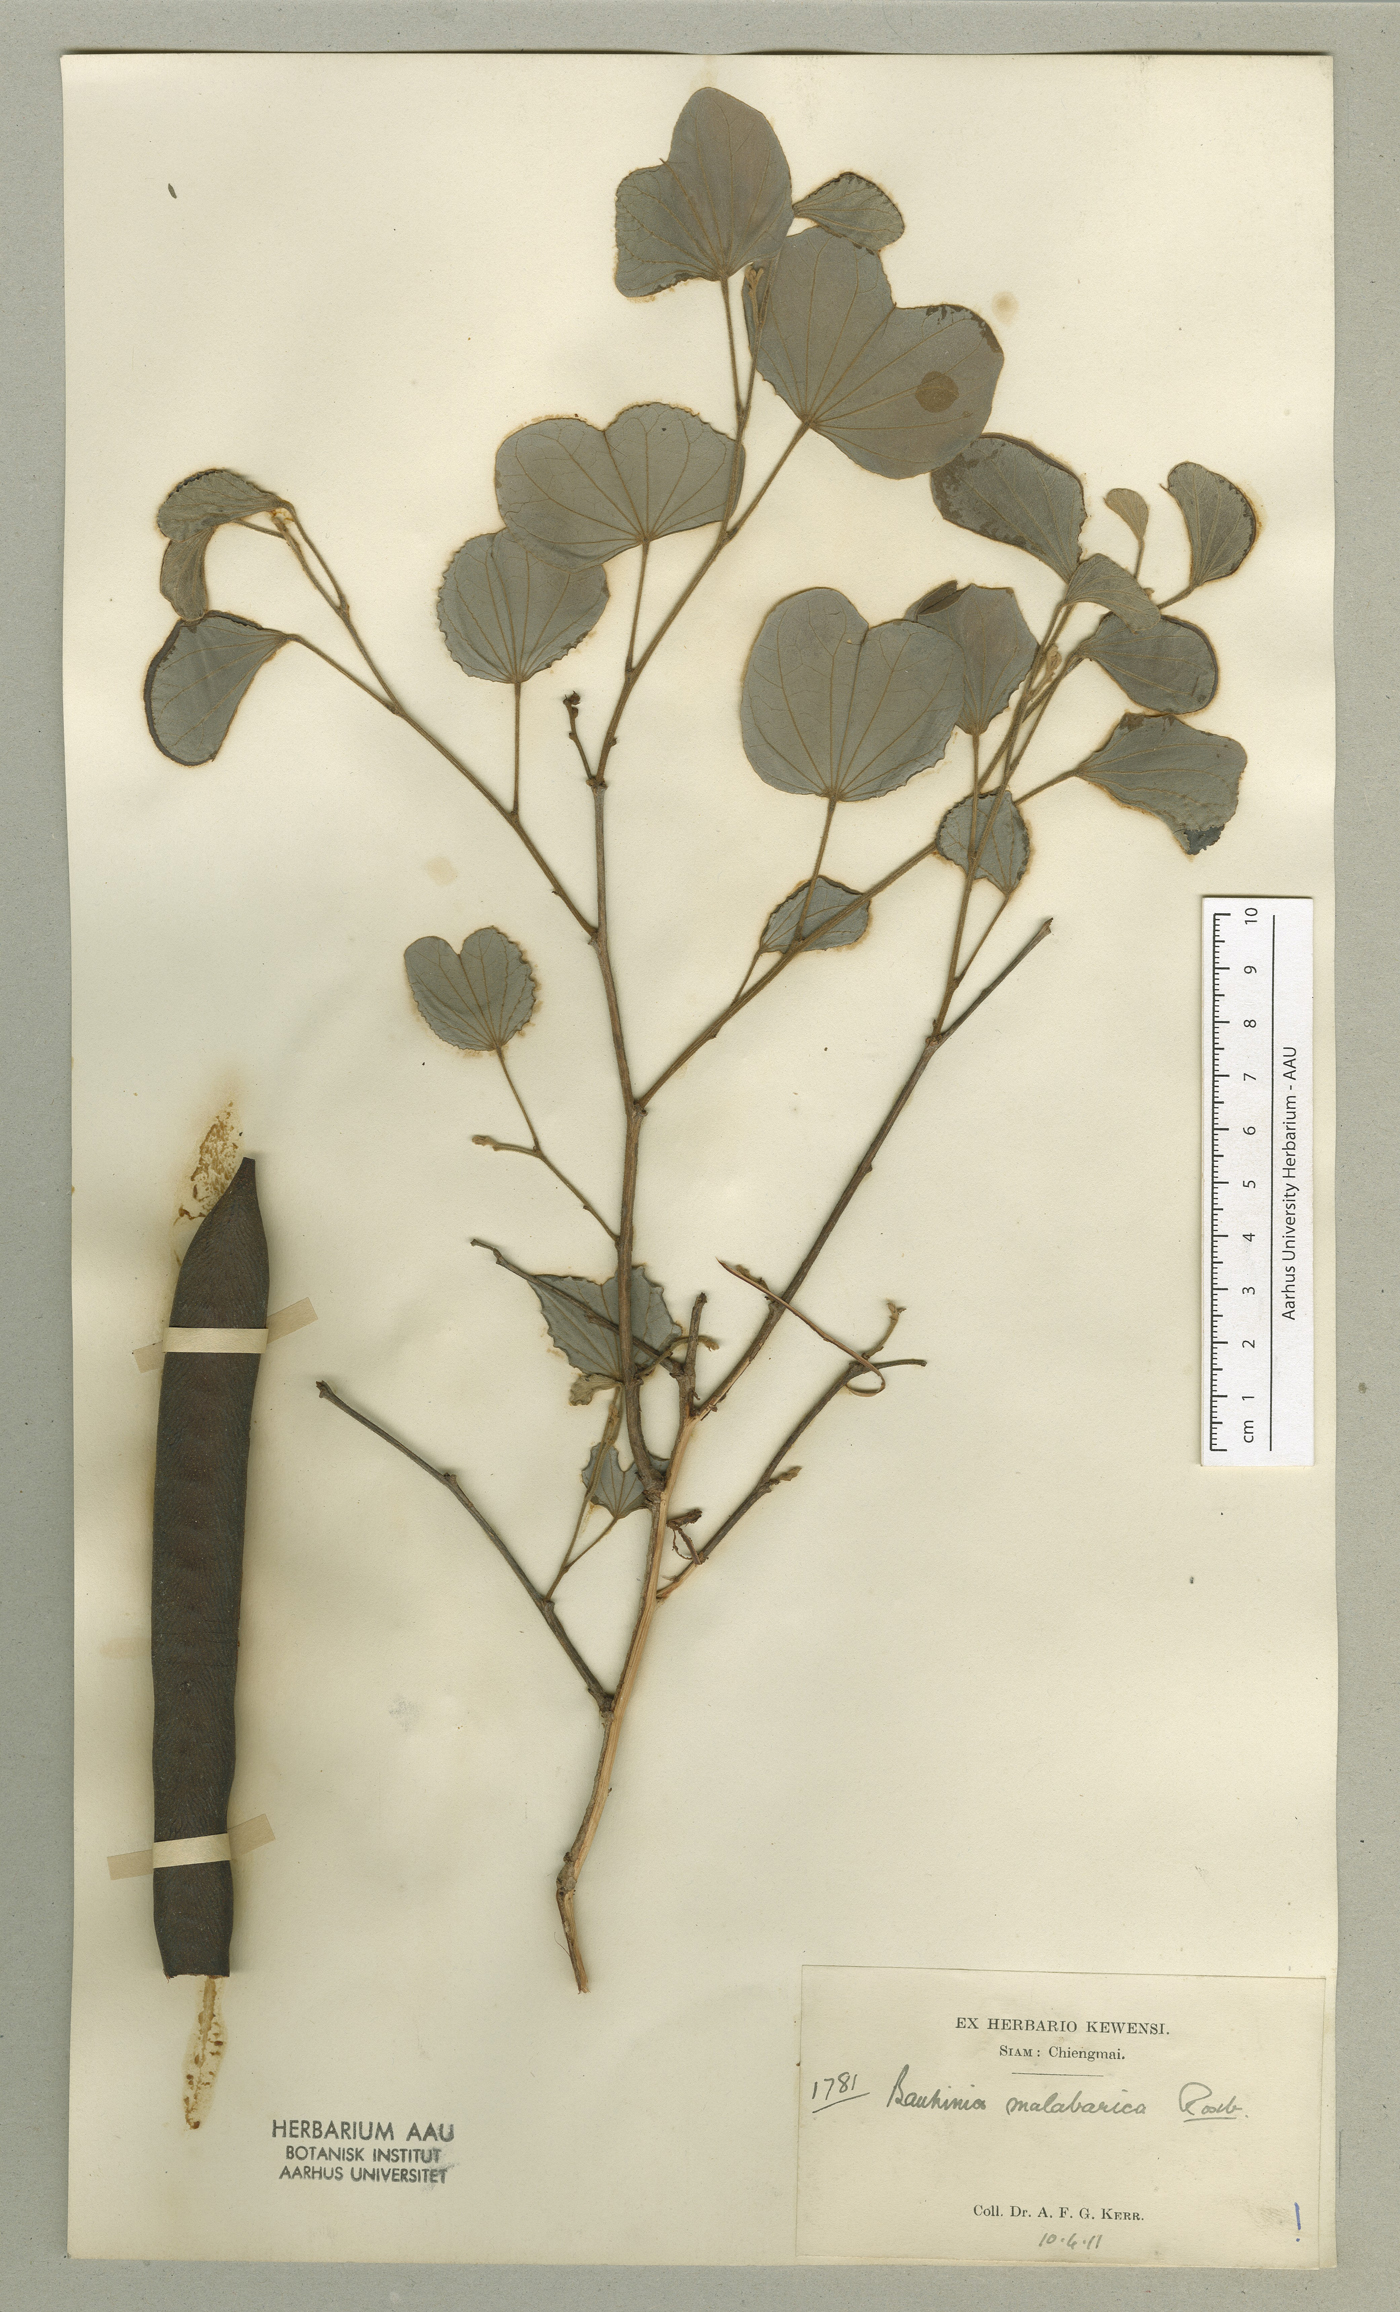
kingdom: Plantae
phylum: Tracheophyta
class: Magnoliopsida
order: Fabales
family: Fabaceae
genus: Piliostigma
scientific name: Piliostigma malabaricum
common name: Malabar bauhinia
